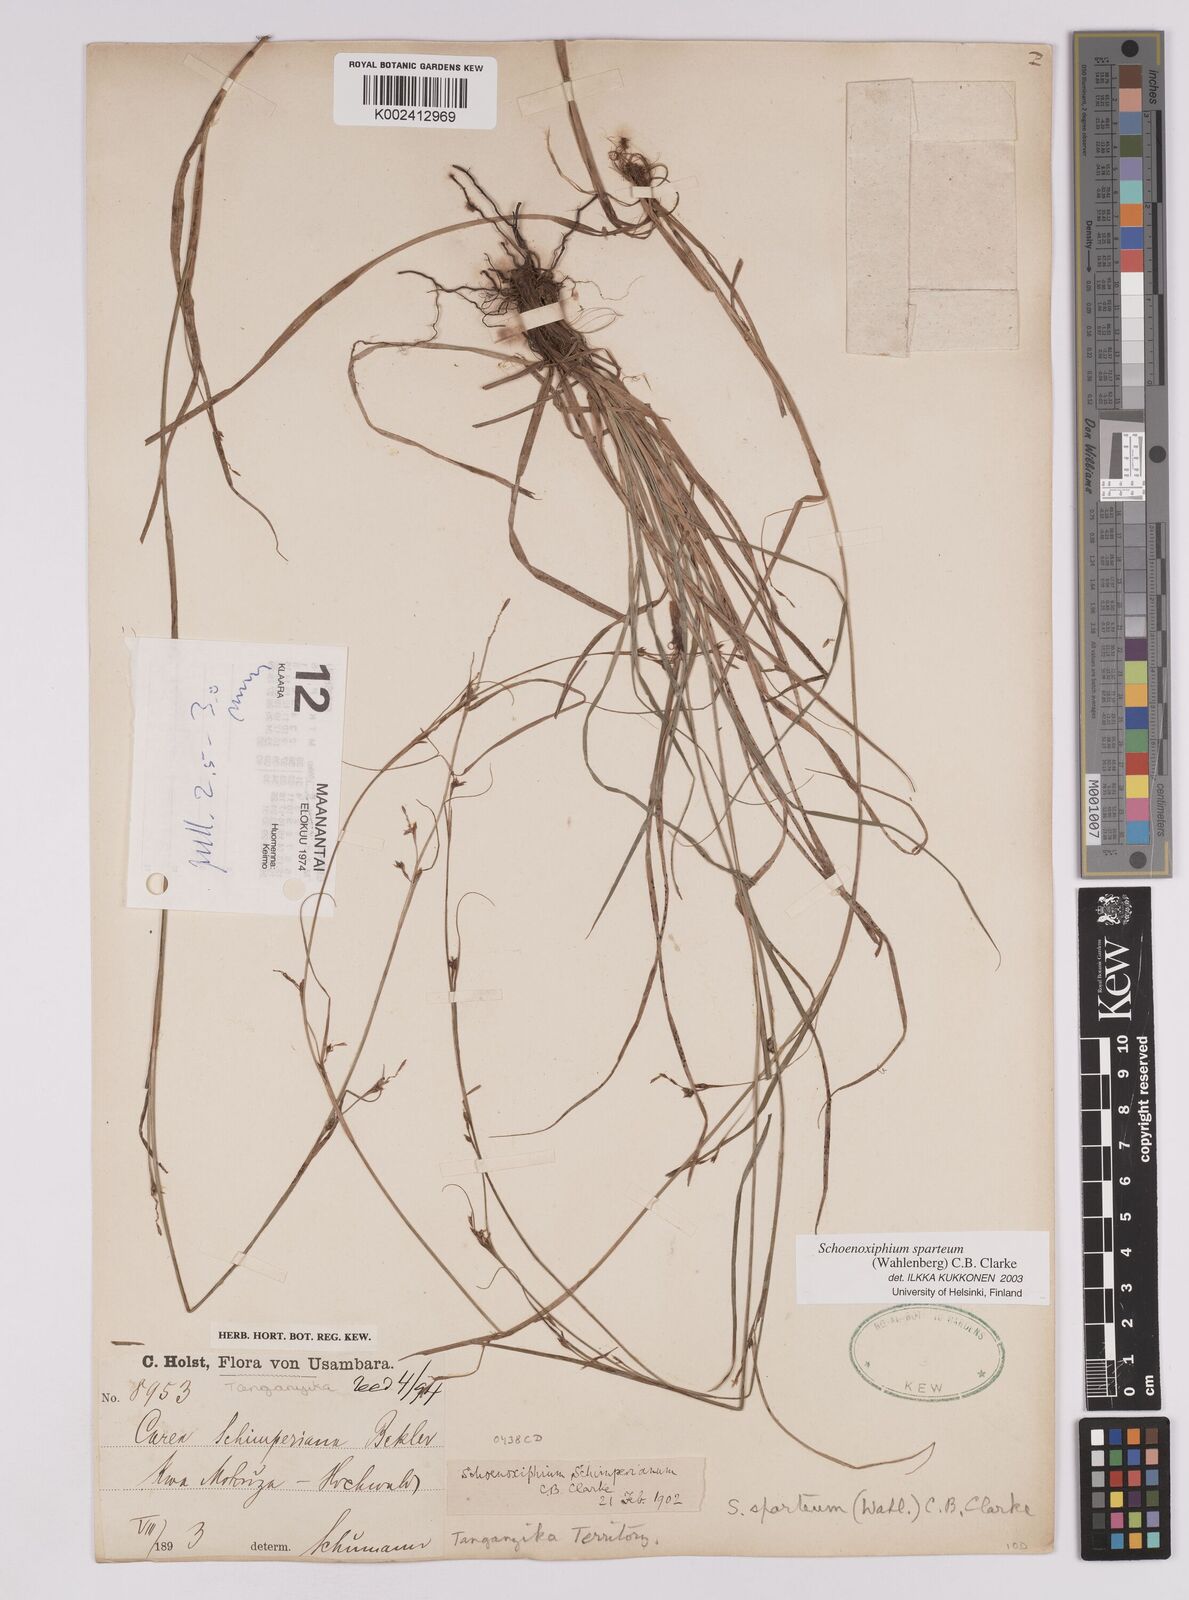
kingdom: Plantae
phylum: Tracheophyta
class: Liliopsida
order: Poales
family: Cyperaceae
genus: Carex
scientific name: Carex spartea
